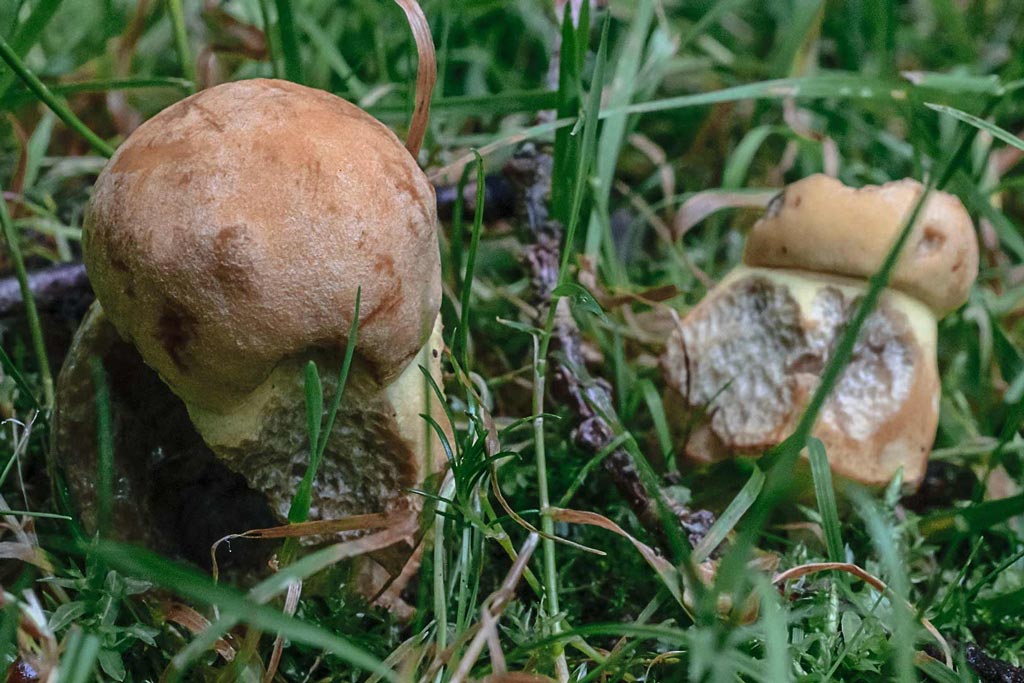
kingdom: Fungi
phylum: Basidiomycota
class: Agaricomycetes
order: Boletales
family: Boletaceae
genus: Leccinellum
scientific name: Leccinellum crocipodium
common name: gul skælrørhat
